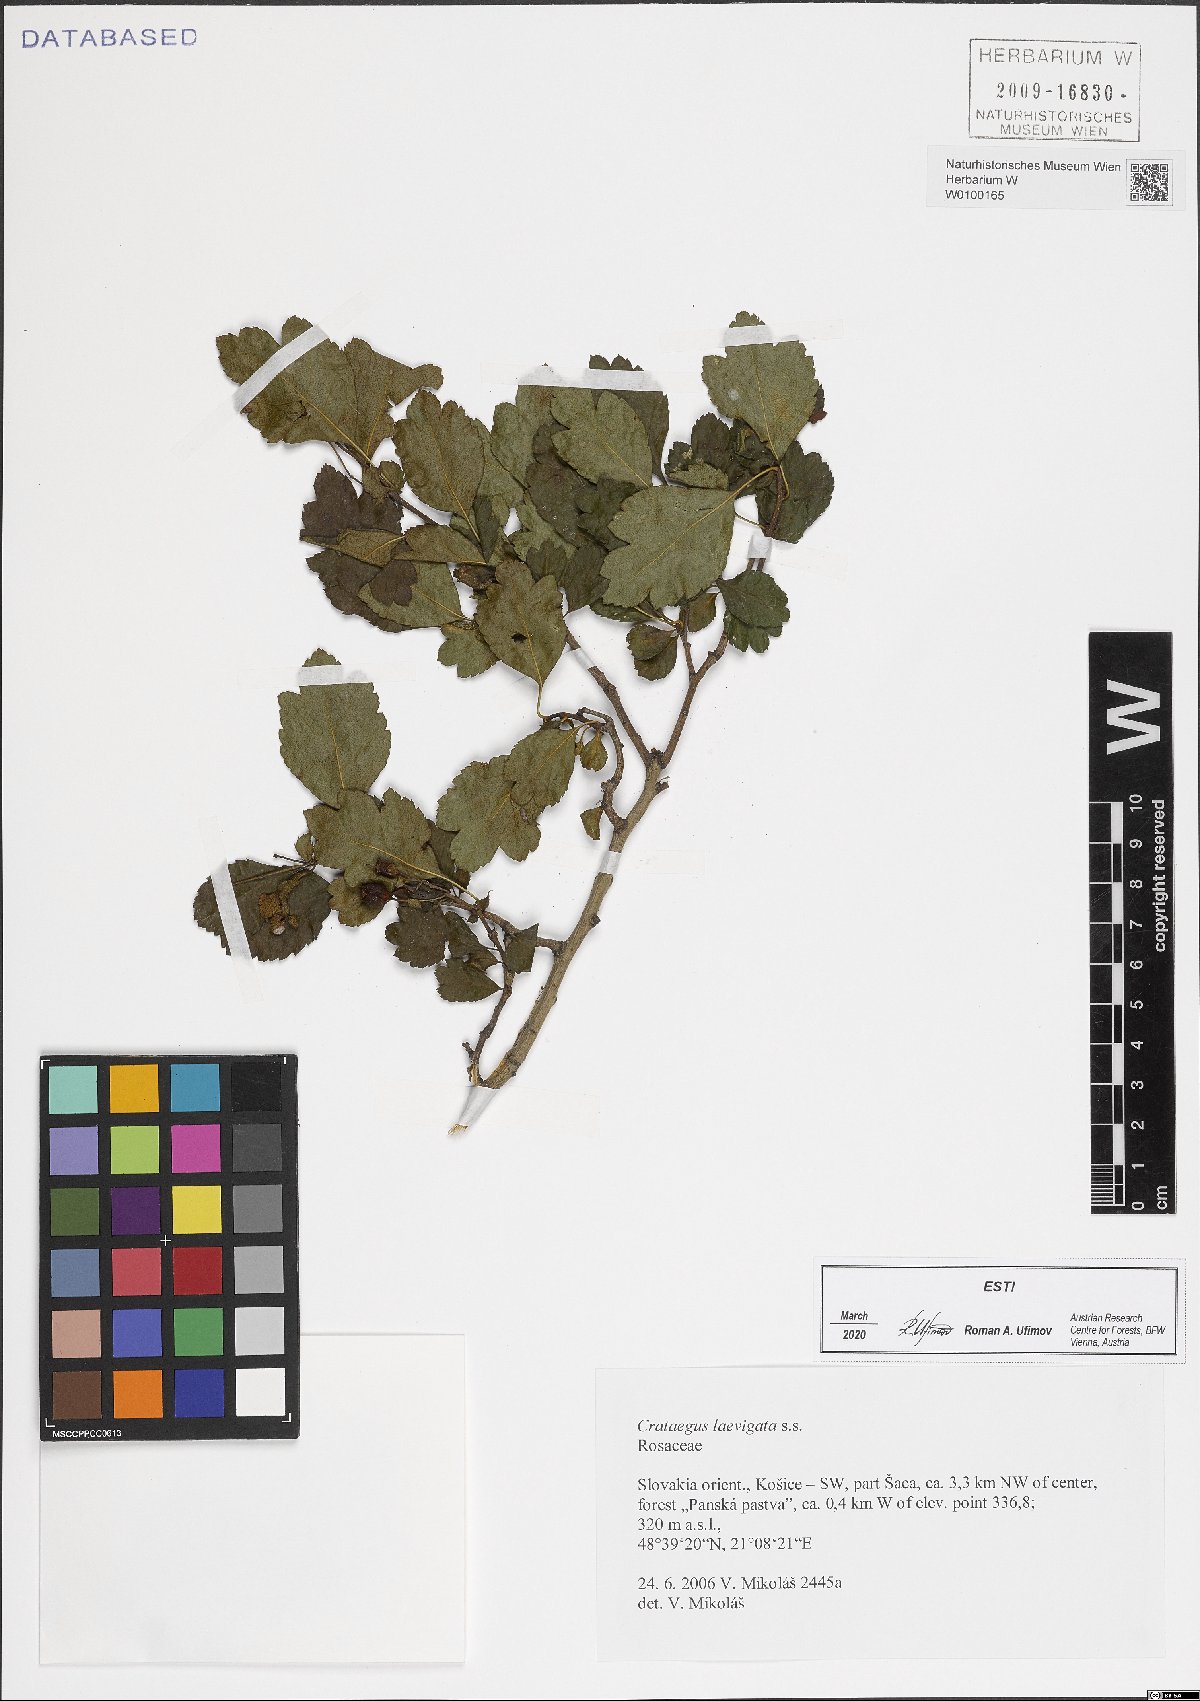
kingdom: Plantae
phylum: Tracheophyta
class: Magnoliopsida
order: Rosales
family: Rosaceae
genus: Crataegus
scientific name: Crataegus laevigata
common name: Midland hawthorn
